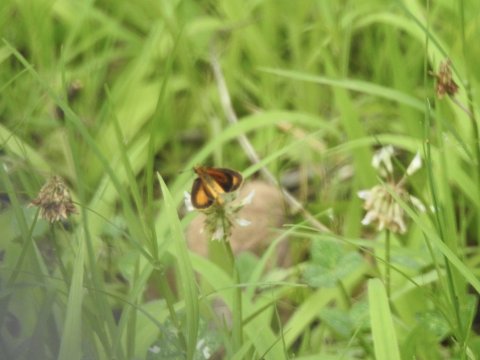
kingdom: Animalia
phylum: Arthropoda
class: Insecta
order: Lepidoptera
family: Hesperiidae
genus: Ancyloxypha
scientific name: Ancyloxypha numitor
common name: Least Skipper
